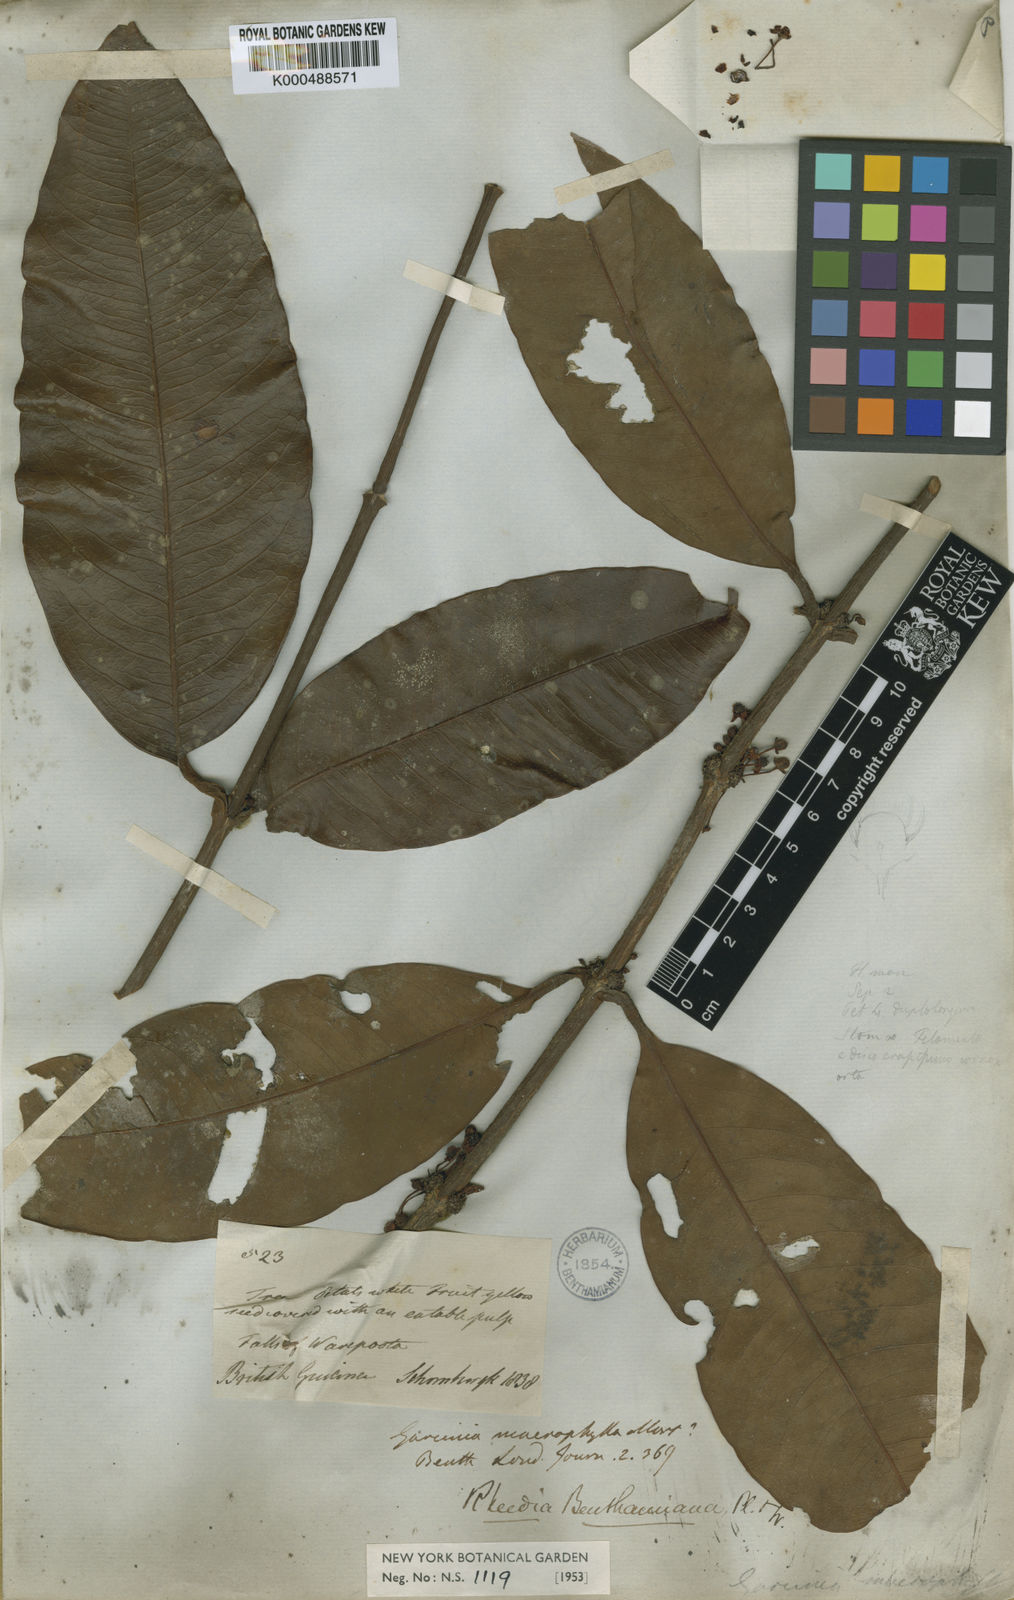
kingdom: Plantae
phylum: Tracheophyta
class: Magnoliopsida
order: Malpighiales
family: Clusiaceae
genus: Garcinia
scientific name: Garcinia benthamiana
